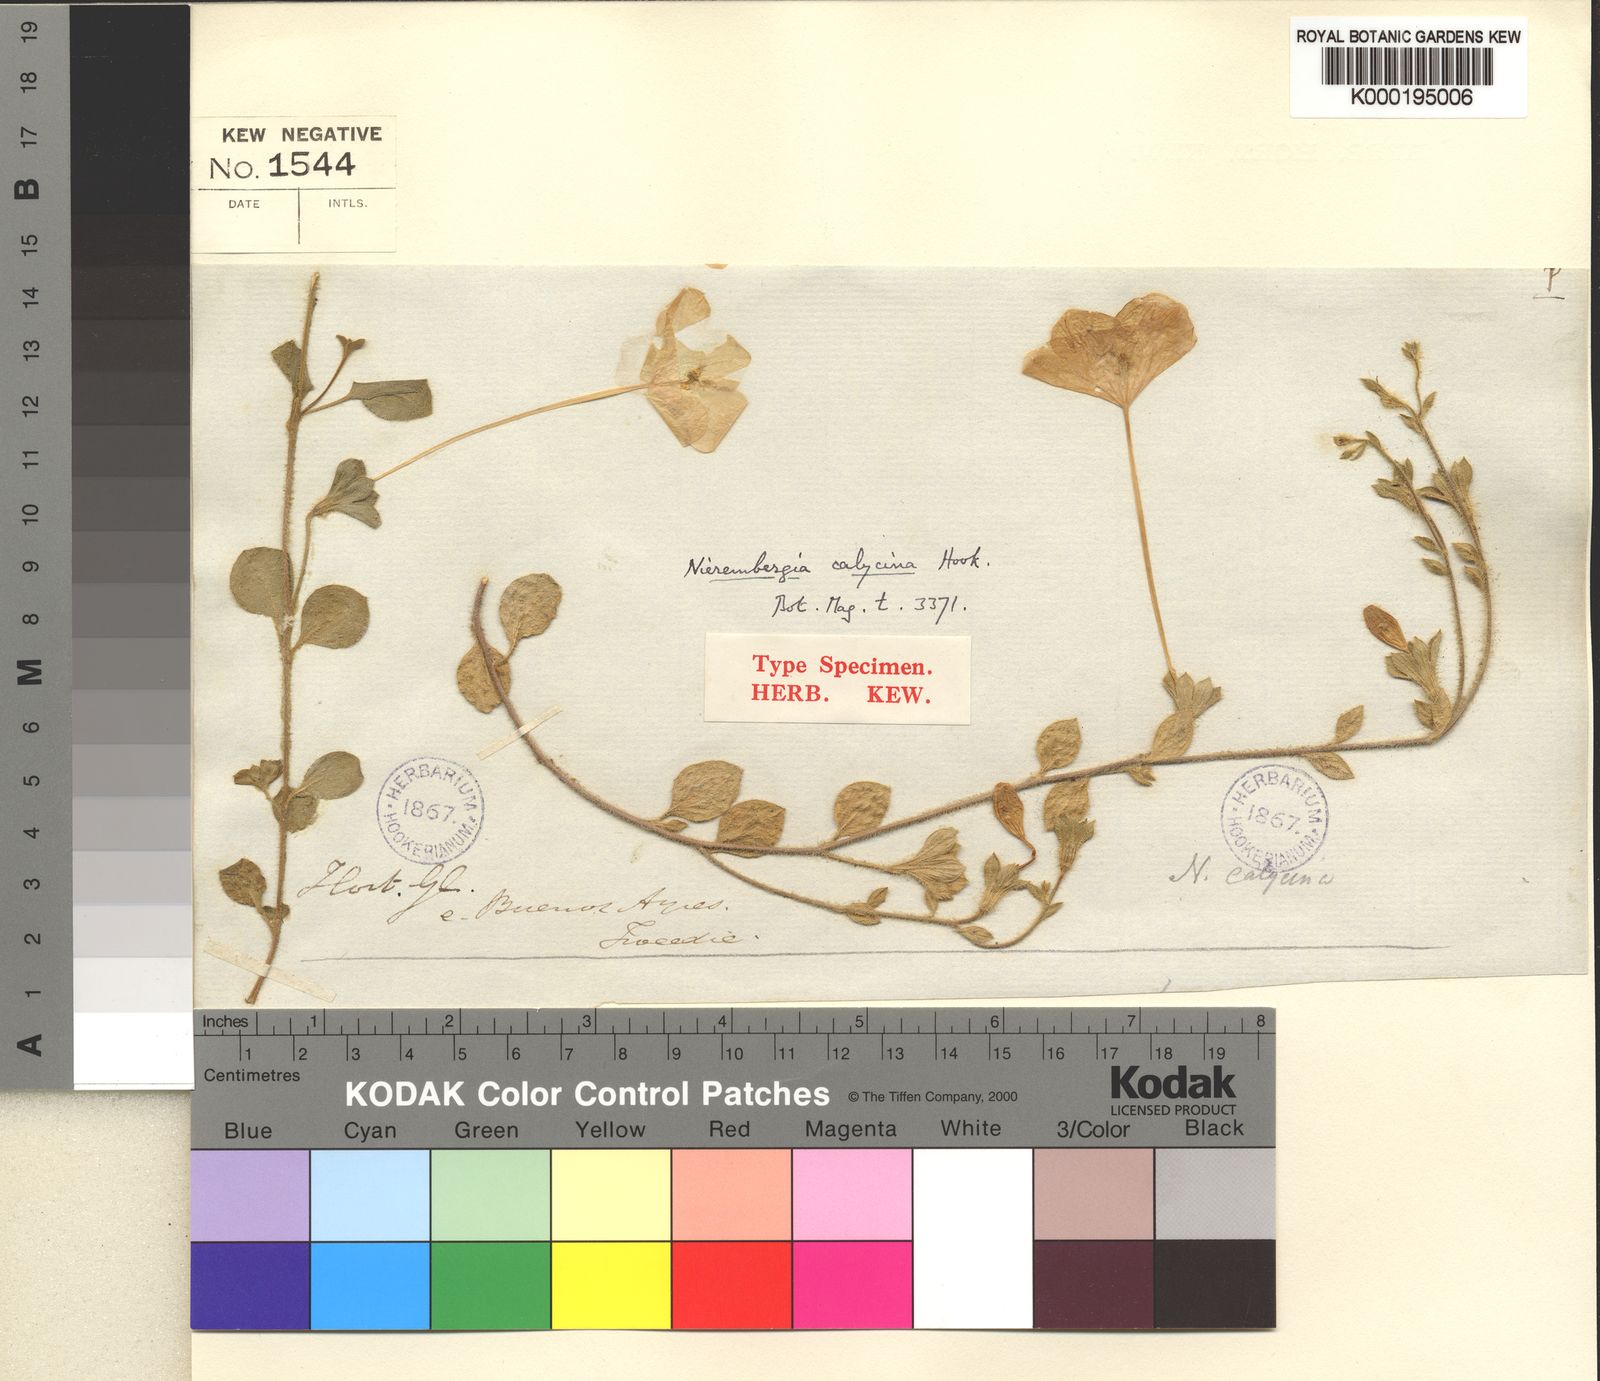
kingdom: Plantae
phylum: Tracheophyta
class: Magnoliopsida
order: Solanales
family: Solanaceae
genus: Nierembergia
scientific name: Nierembergia calycina
